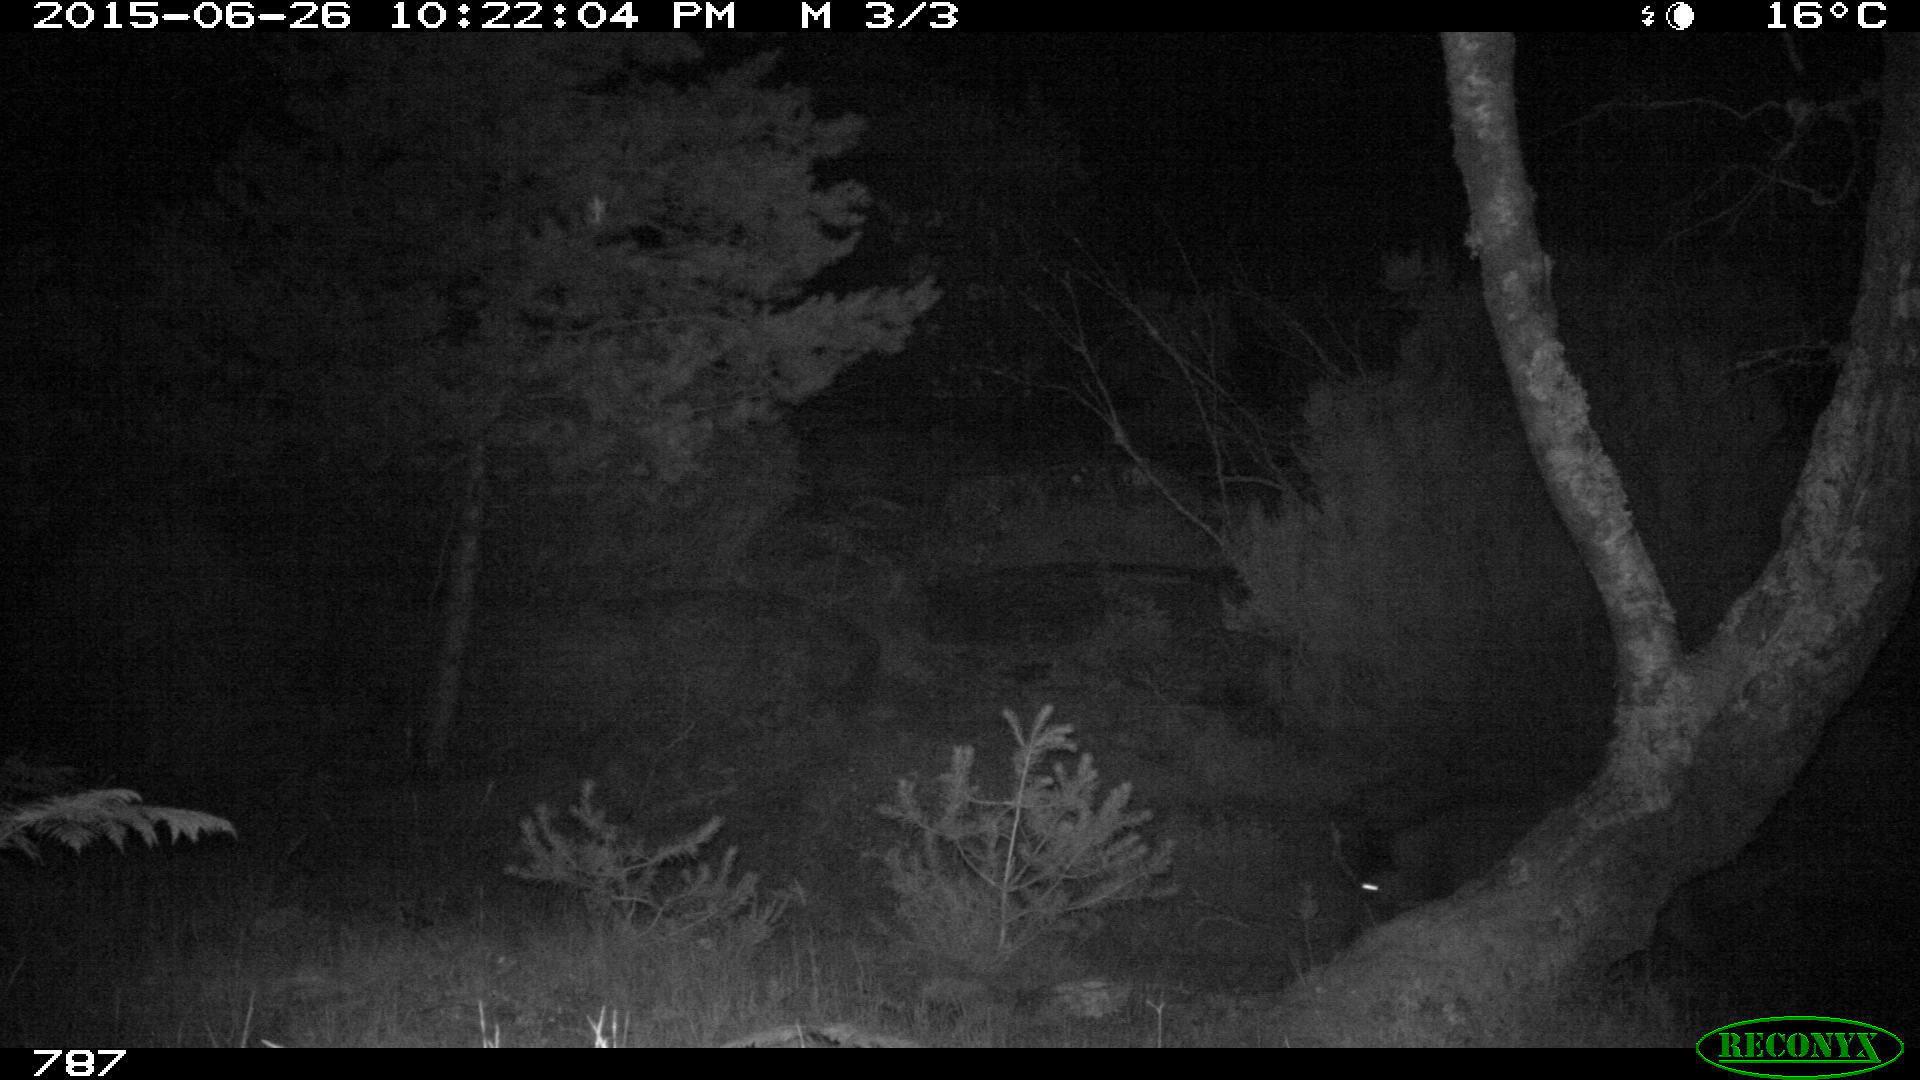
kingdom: Animalia
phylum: Chordata
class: Mammalia
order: Artiodactyla
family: Suidae
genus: Sus
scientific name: Sus scrofa
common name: Wild boar
